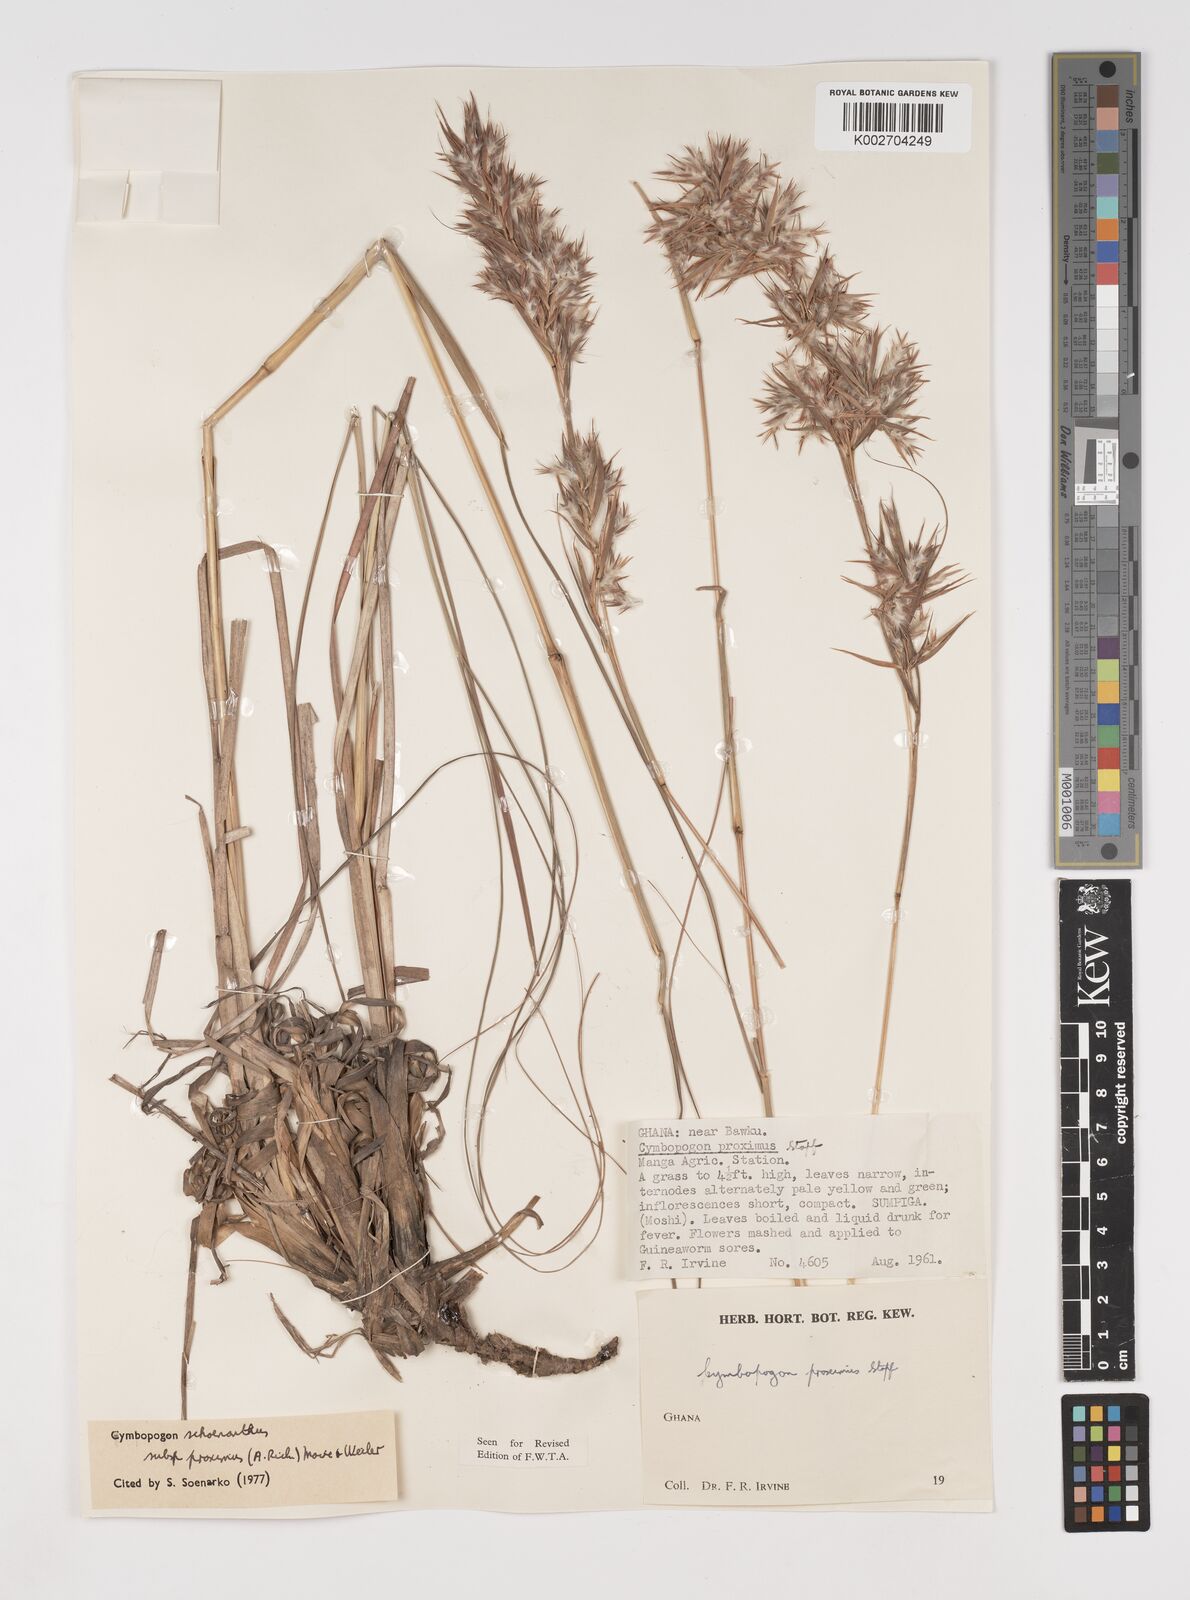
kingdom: Plantae
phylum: Tracheophyta
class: Liliopsida
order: Poales
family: Poaceae
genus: Cymbopogon
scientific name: Cymbopogon schoenanthus
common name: Geranium grass
